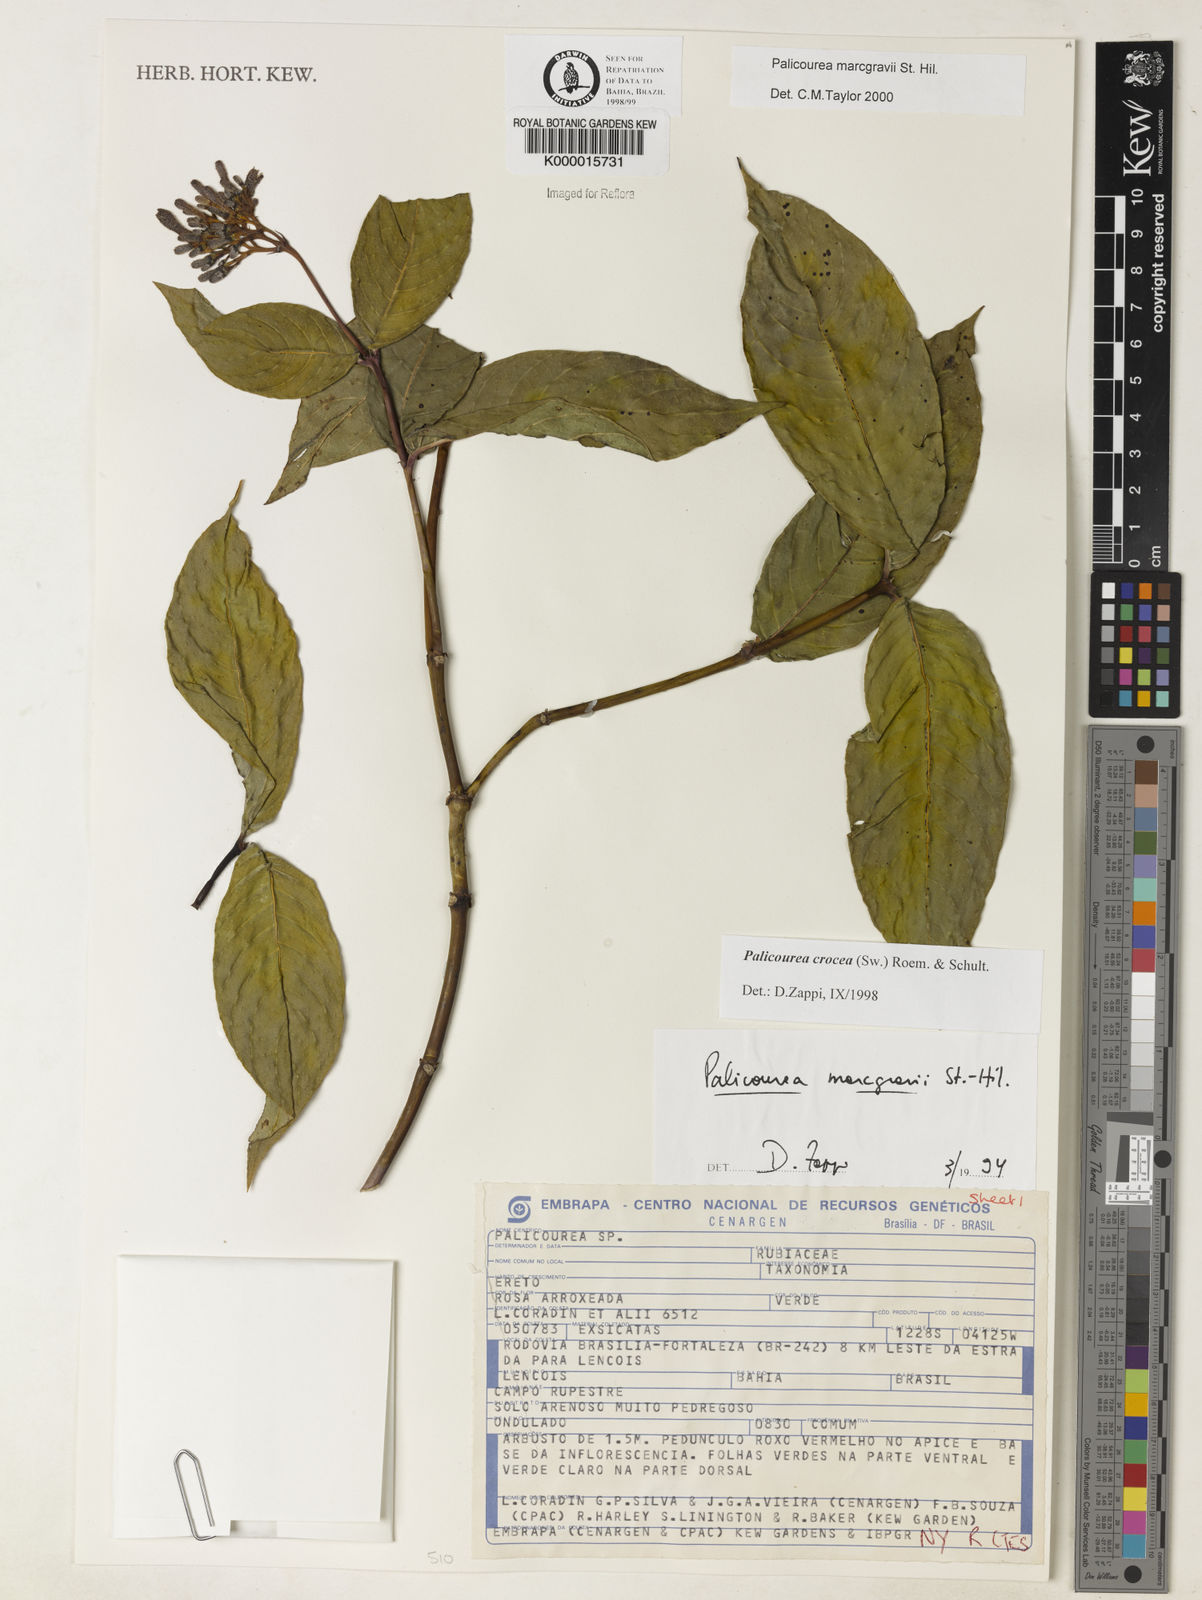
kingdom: Plantae
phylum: Tracheophyta
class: Magnoliopsida
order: Gentianales
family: Rubiaceae
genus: Palicourea
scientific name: Palicourea marcgravii
